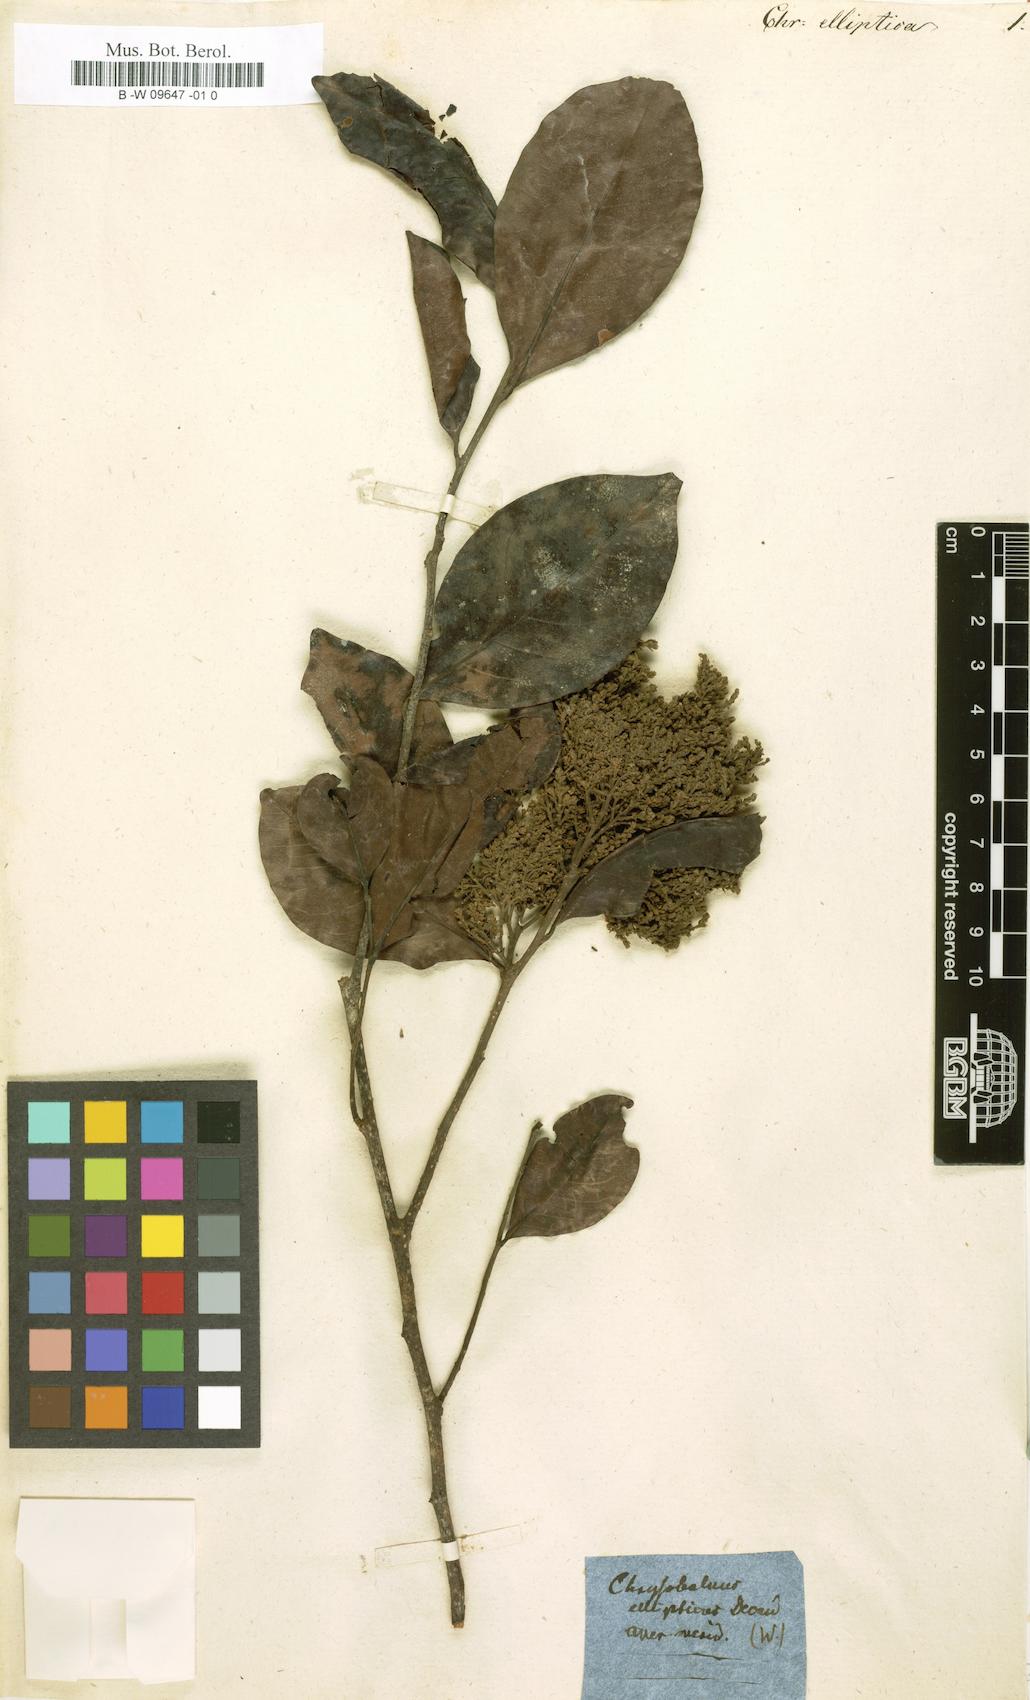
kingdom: Plantae
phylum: Tracheophyta
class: Magnoliopsida
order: Malpighiales
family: Chrysobalanaceae
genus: Chrysobalanus
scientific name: Chrysobalanus icaco
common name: Coco plum
